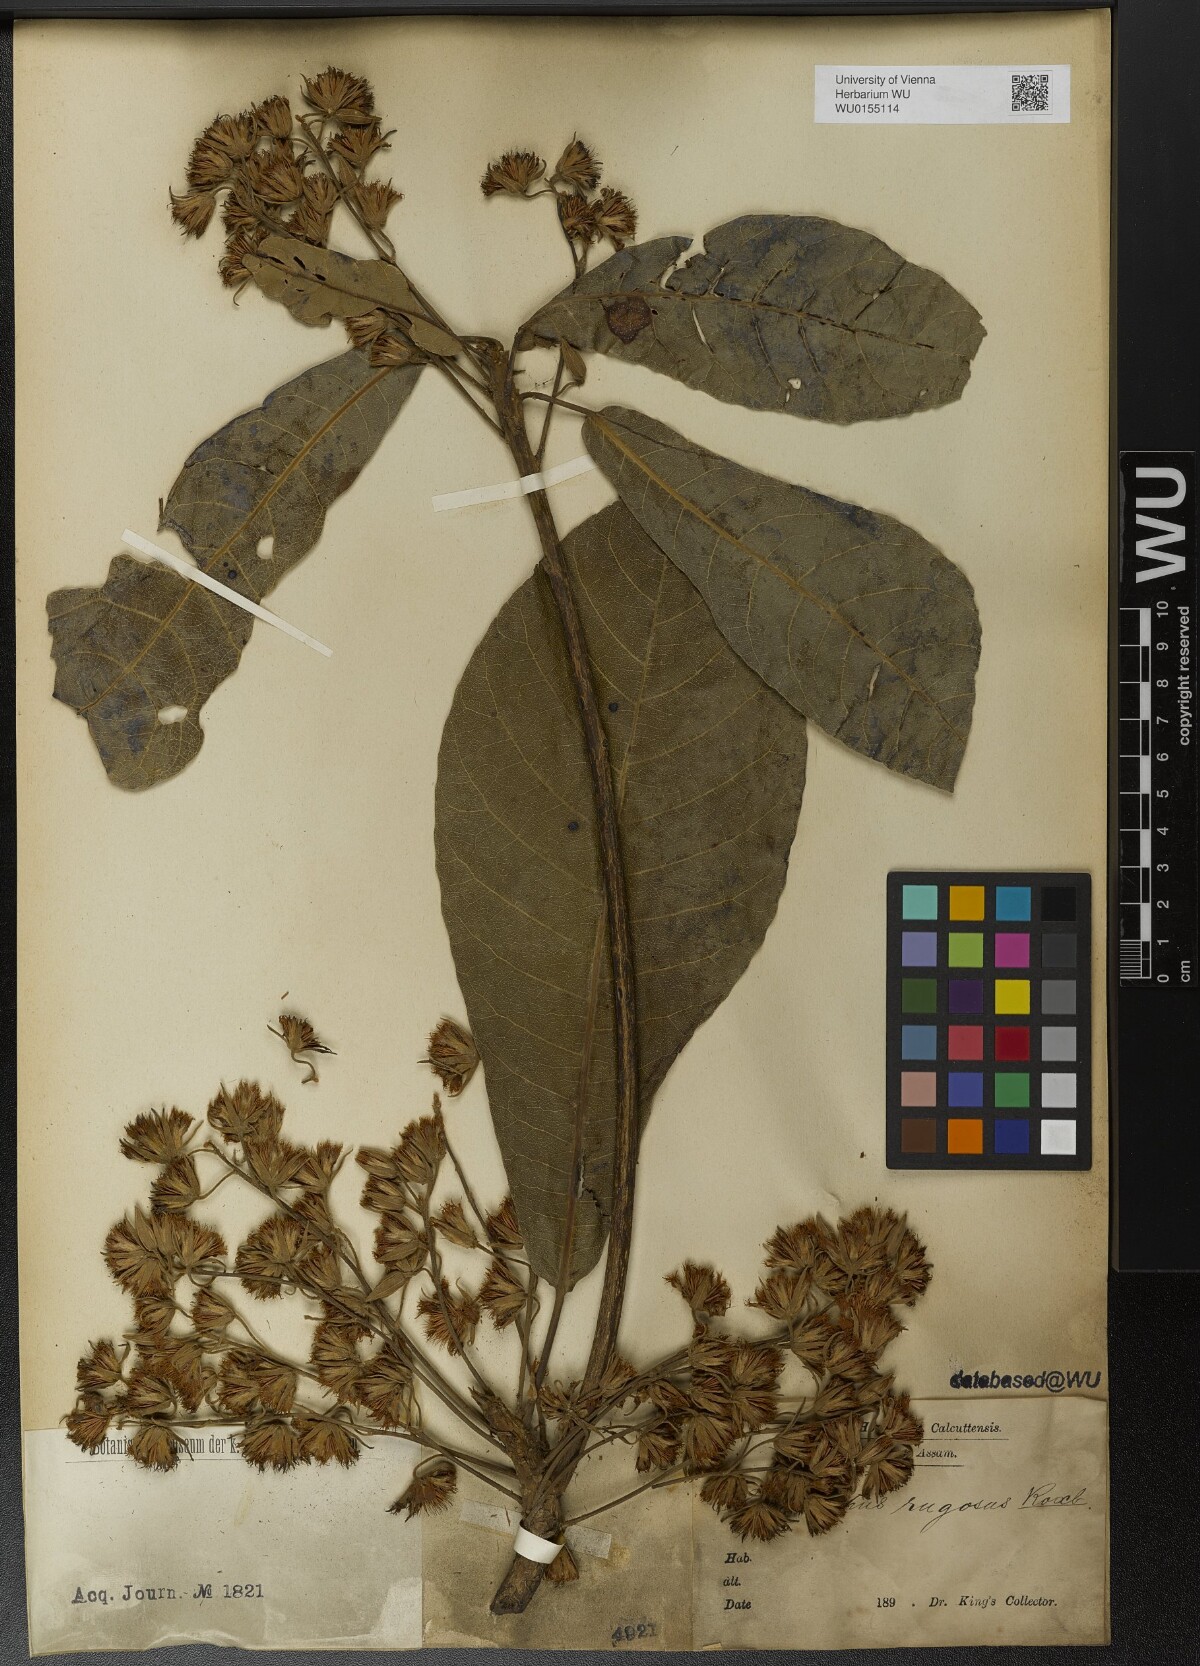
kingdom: Plantae
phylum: Tracheophyta
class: Magnoliopsida
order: Oxalidales
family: Elaeocarpaceae
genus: Elaeocarpus
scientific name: Elaeocarpus rugosus
